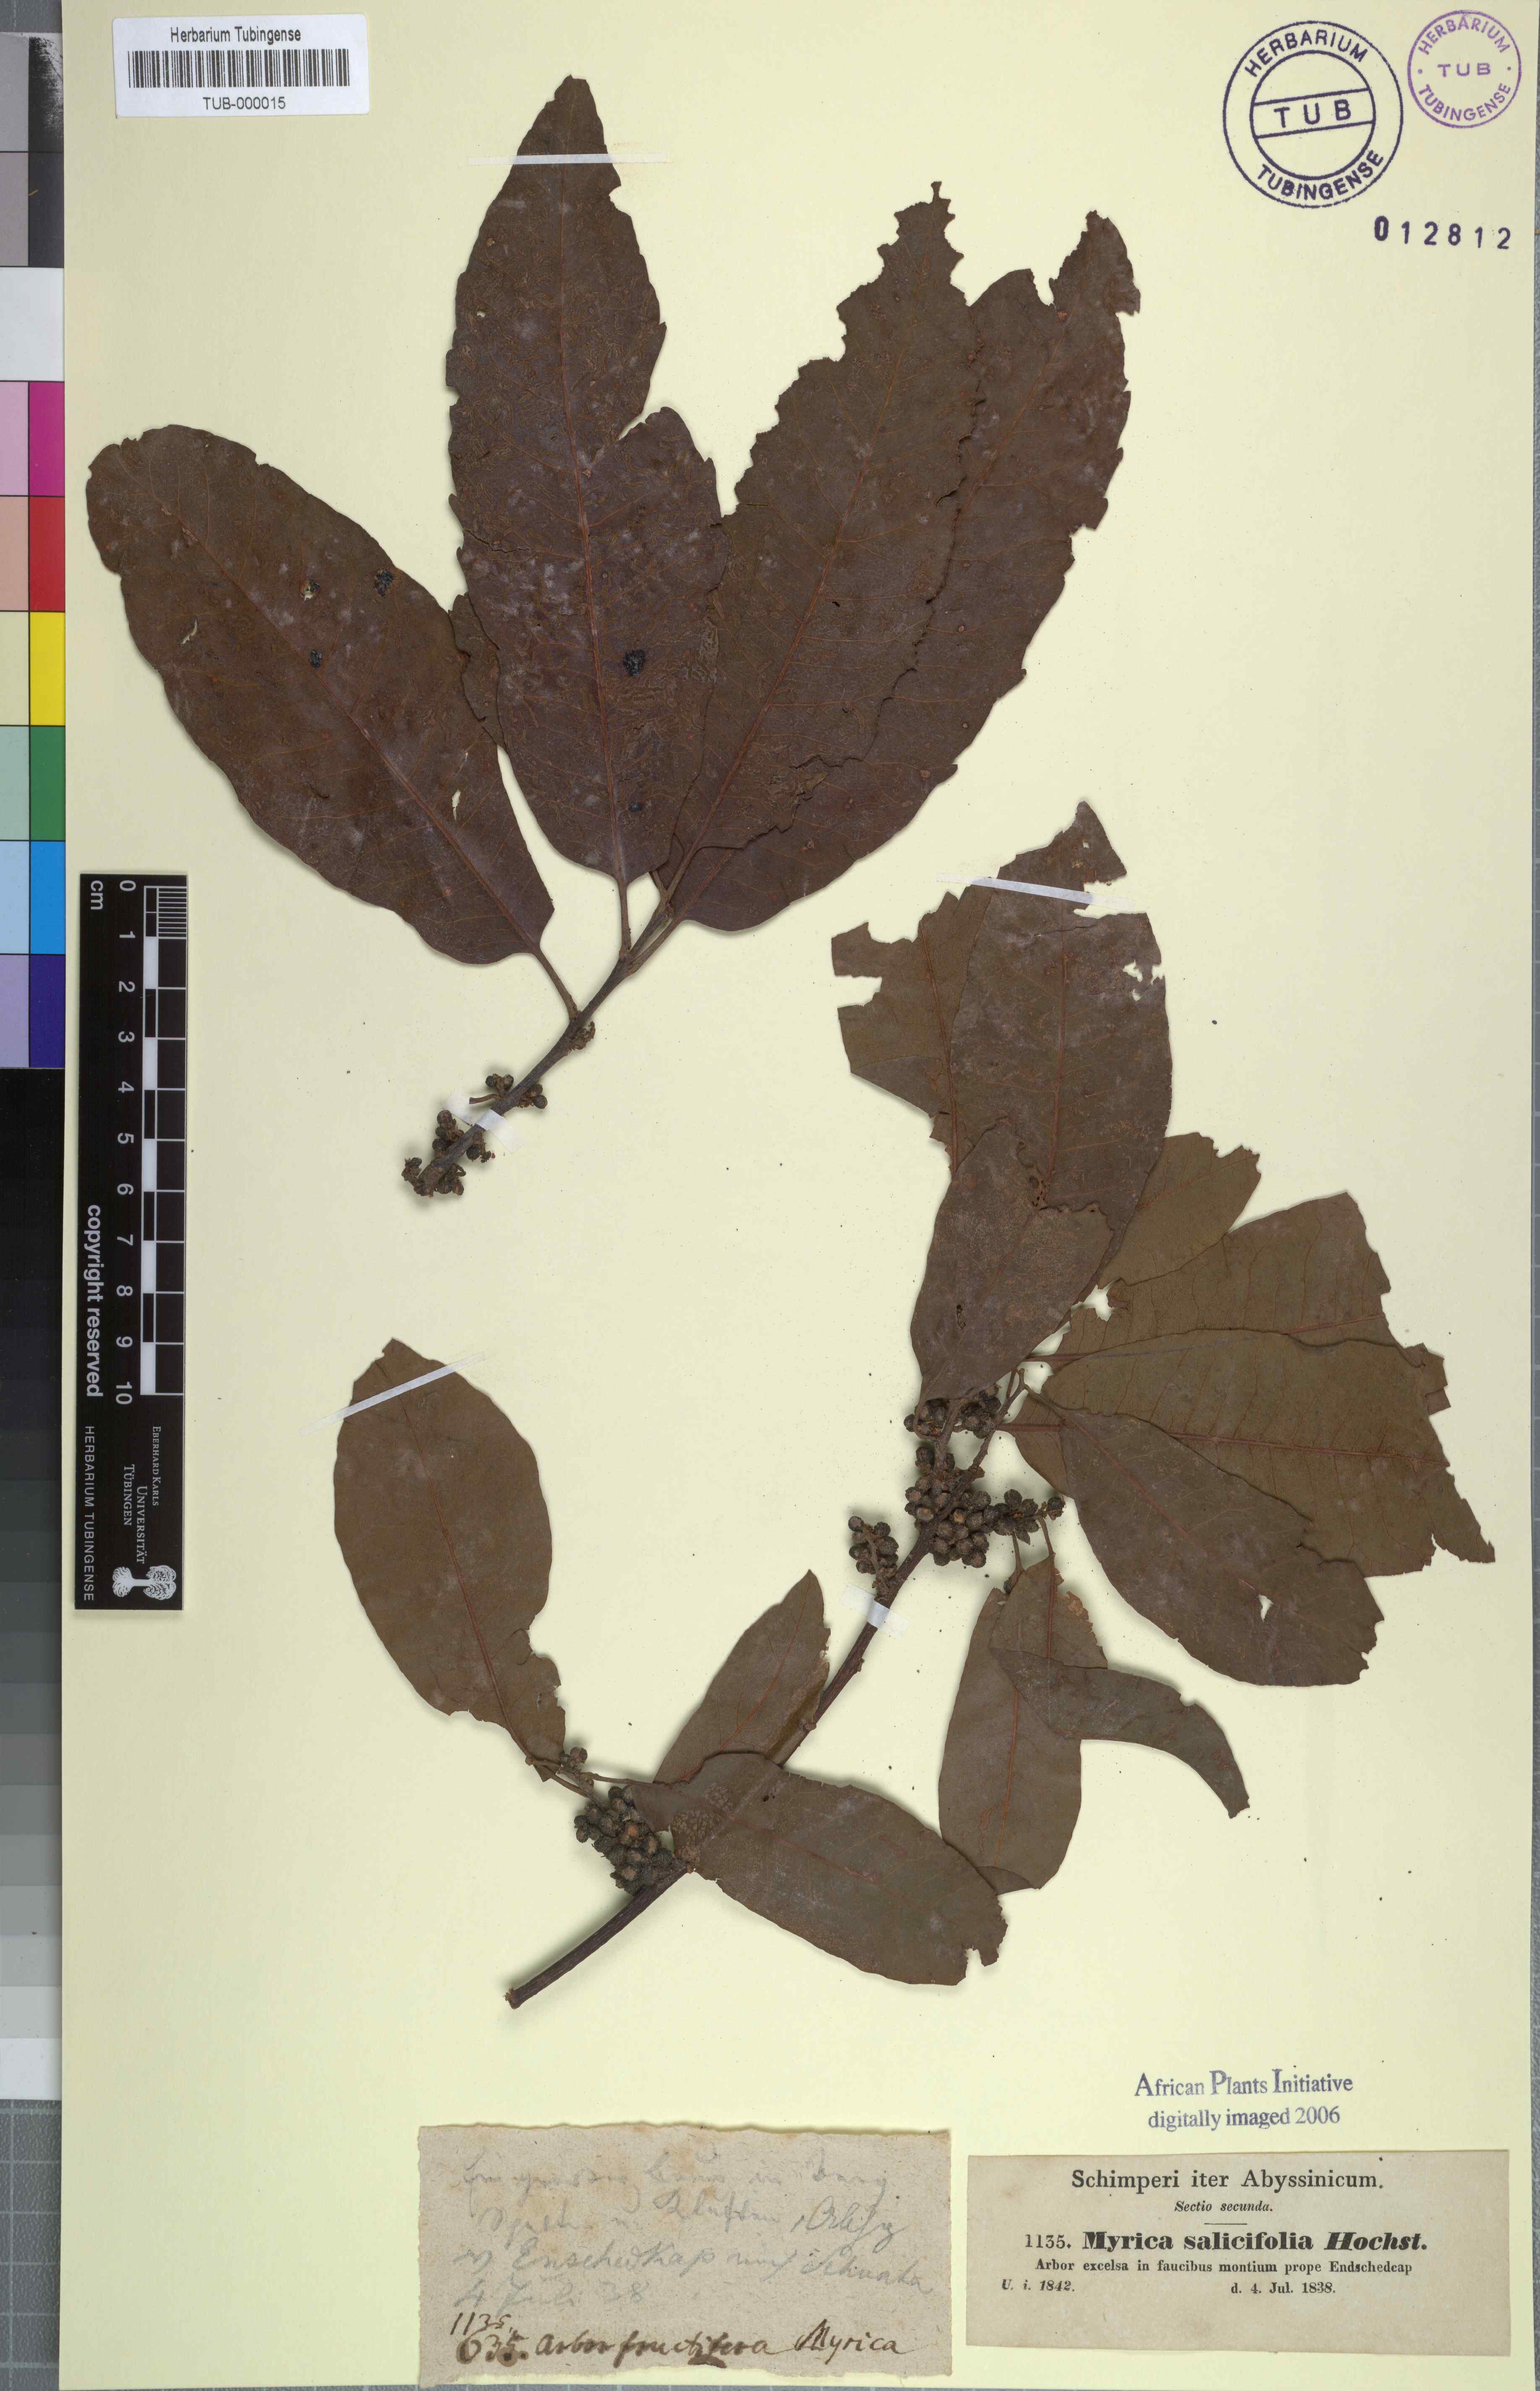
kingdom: Plantae
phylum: Tracheophyta
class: Magnoliopsida
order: Fagales
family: Myricaceae
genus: Morella
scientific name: Morella salicifolia
